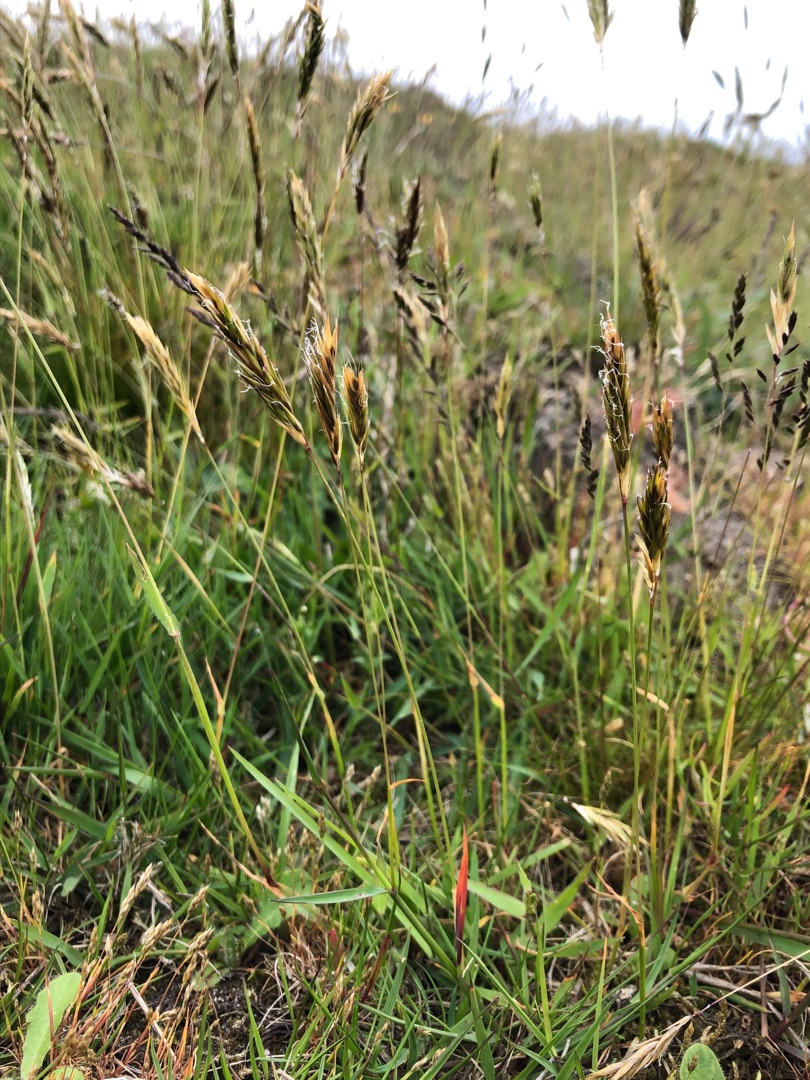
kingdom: Plantae
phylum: Tracheophyta
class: Liliopsida
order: Poales
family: Poaceae
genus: Anthoxanthum
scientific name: Anthoxanthum odoratum
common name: Vellugtende gulaks
